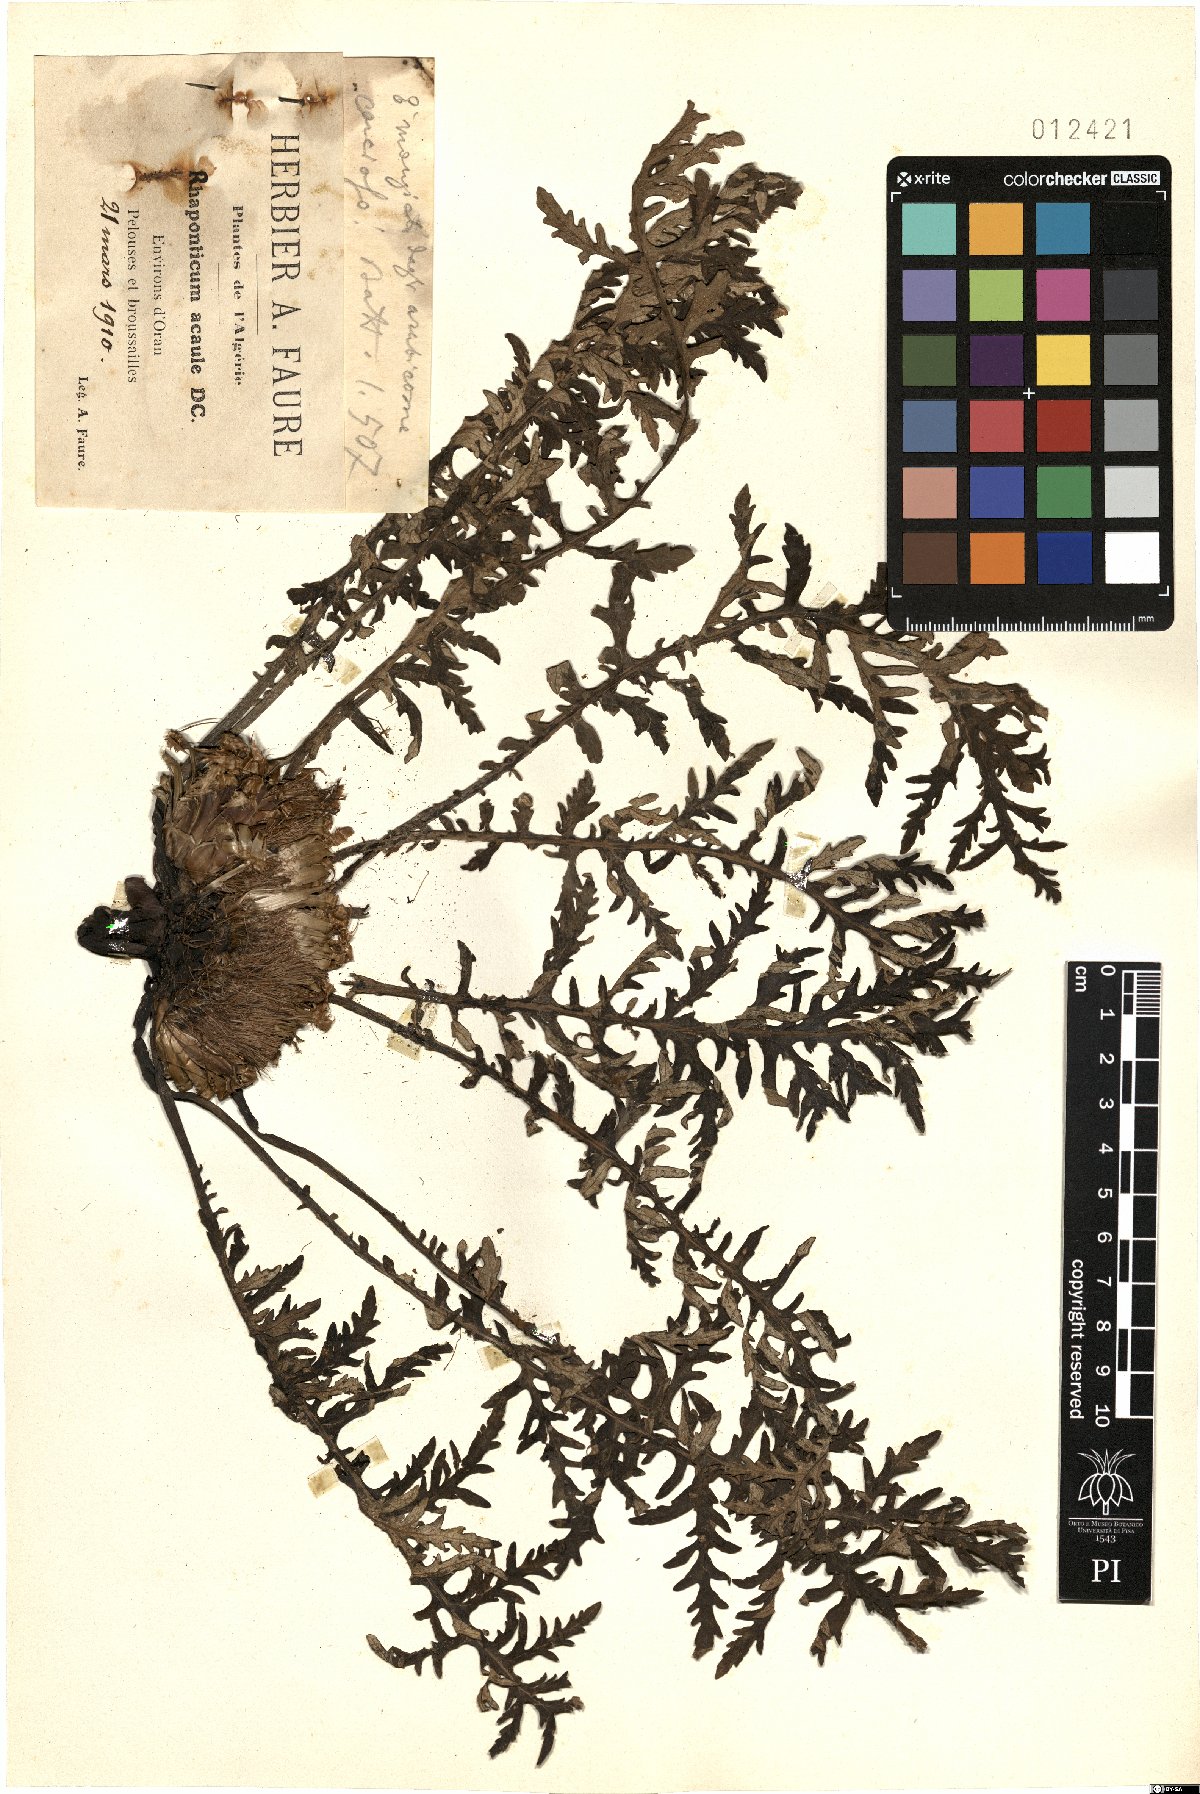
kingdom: Plantae
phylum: Tracheophyta
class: Magnoliopsida
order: Asterales
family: Asteraceae
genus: Leuzea
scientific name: Leuzea acaulis
